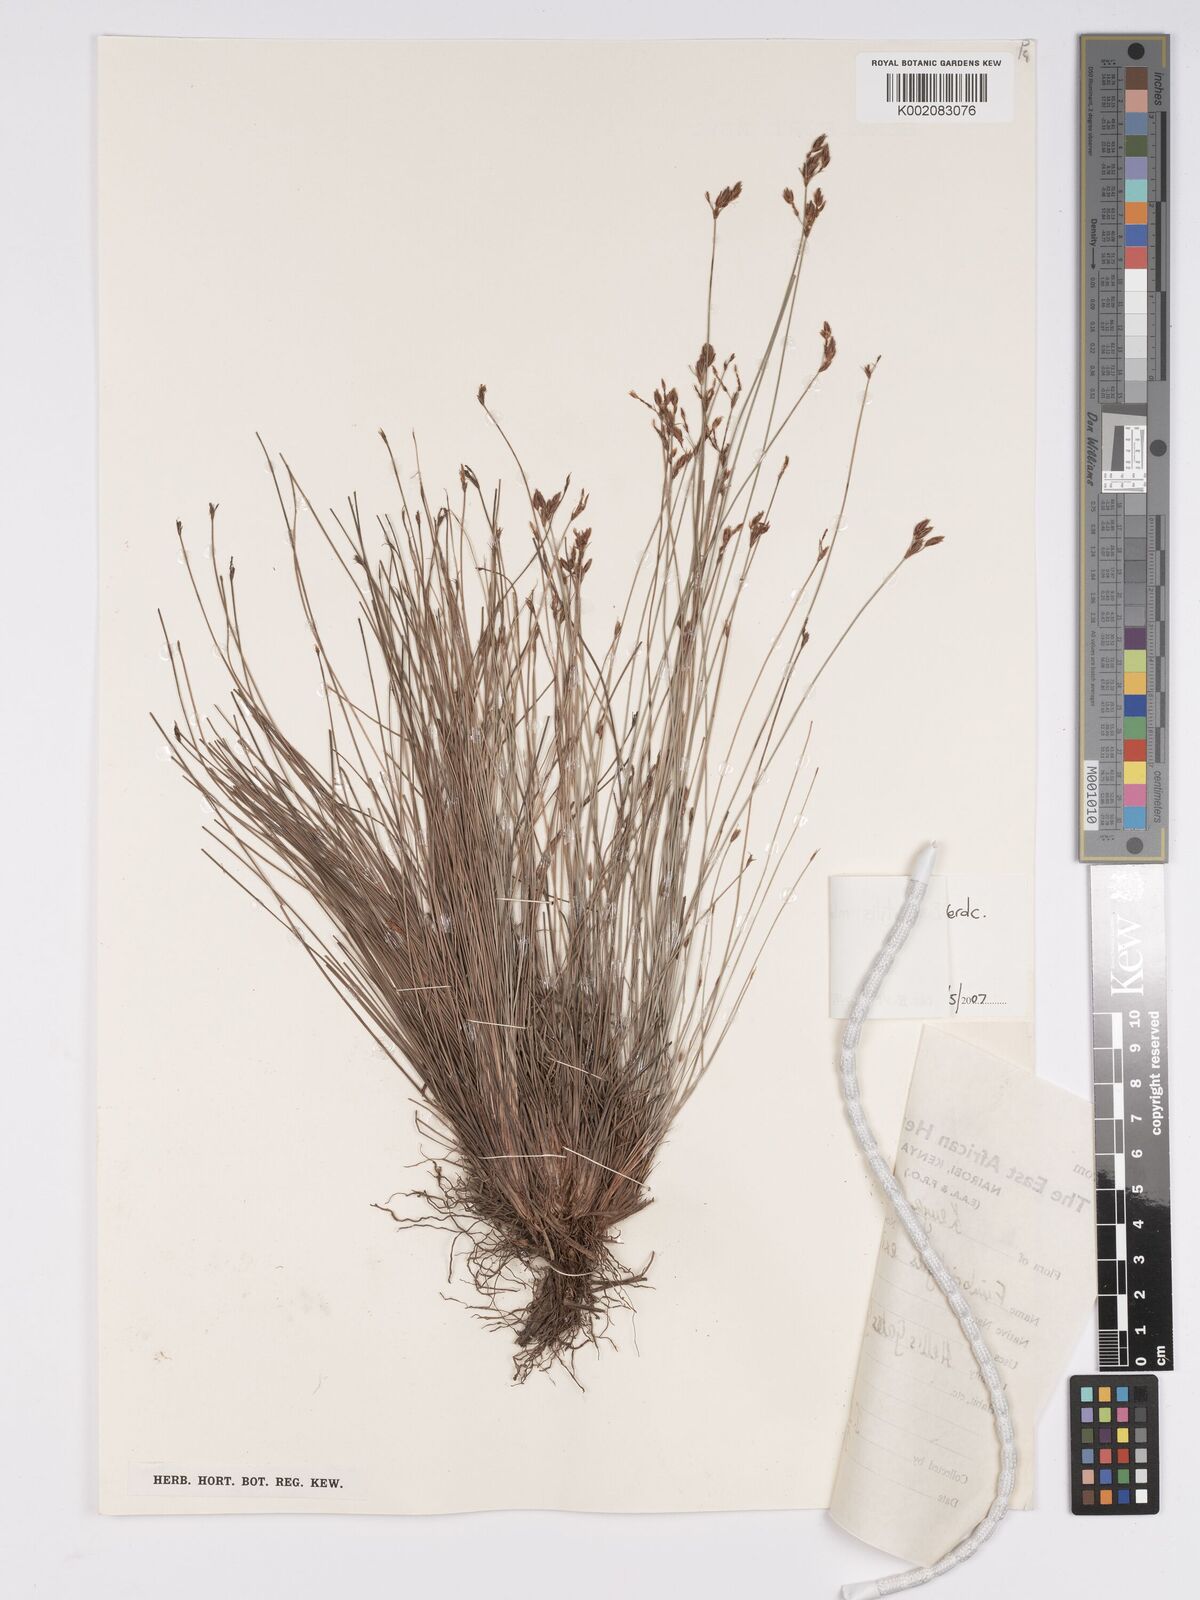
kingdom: Plantae
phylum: Tracheophyta
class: Liliopsida
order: Poales
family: Cyperaceae
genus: Bulbostylis
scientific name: Bulbostylis mlangoyajehenum
